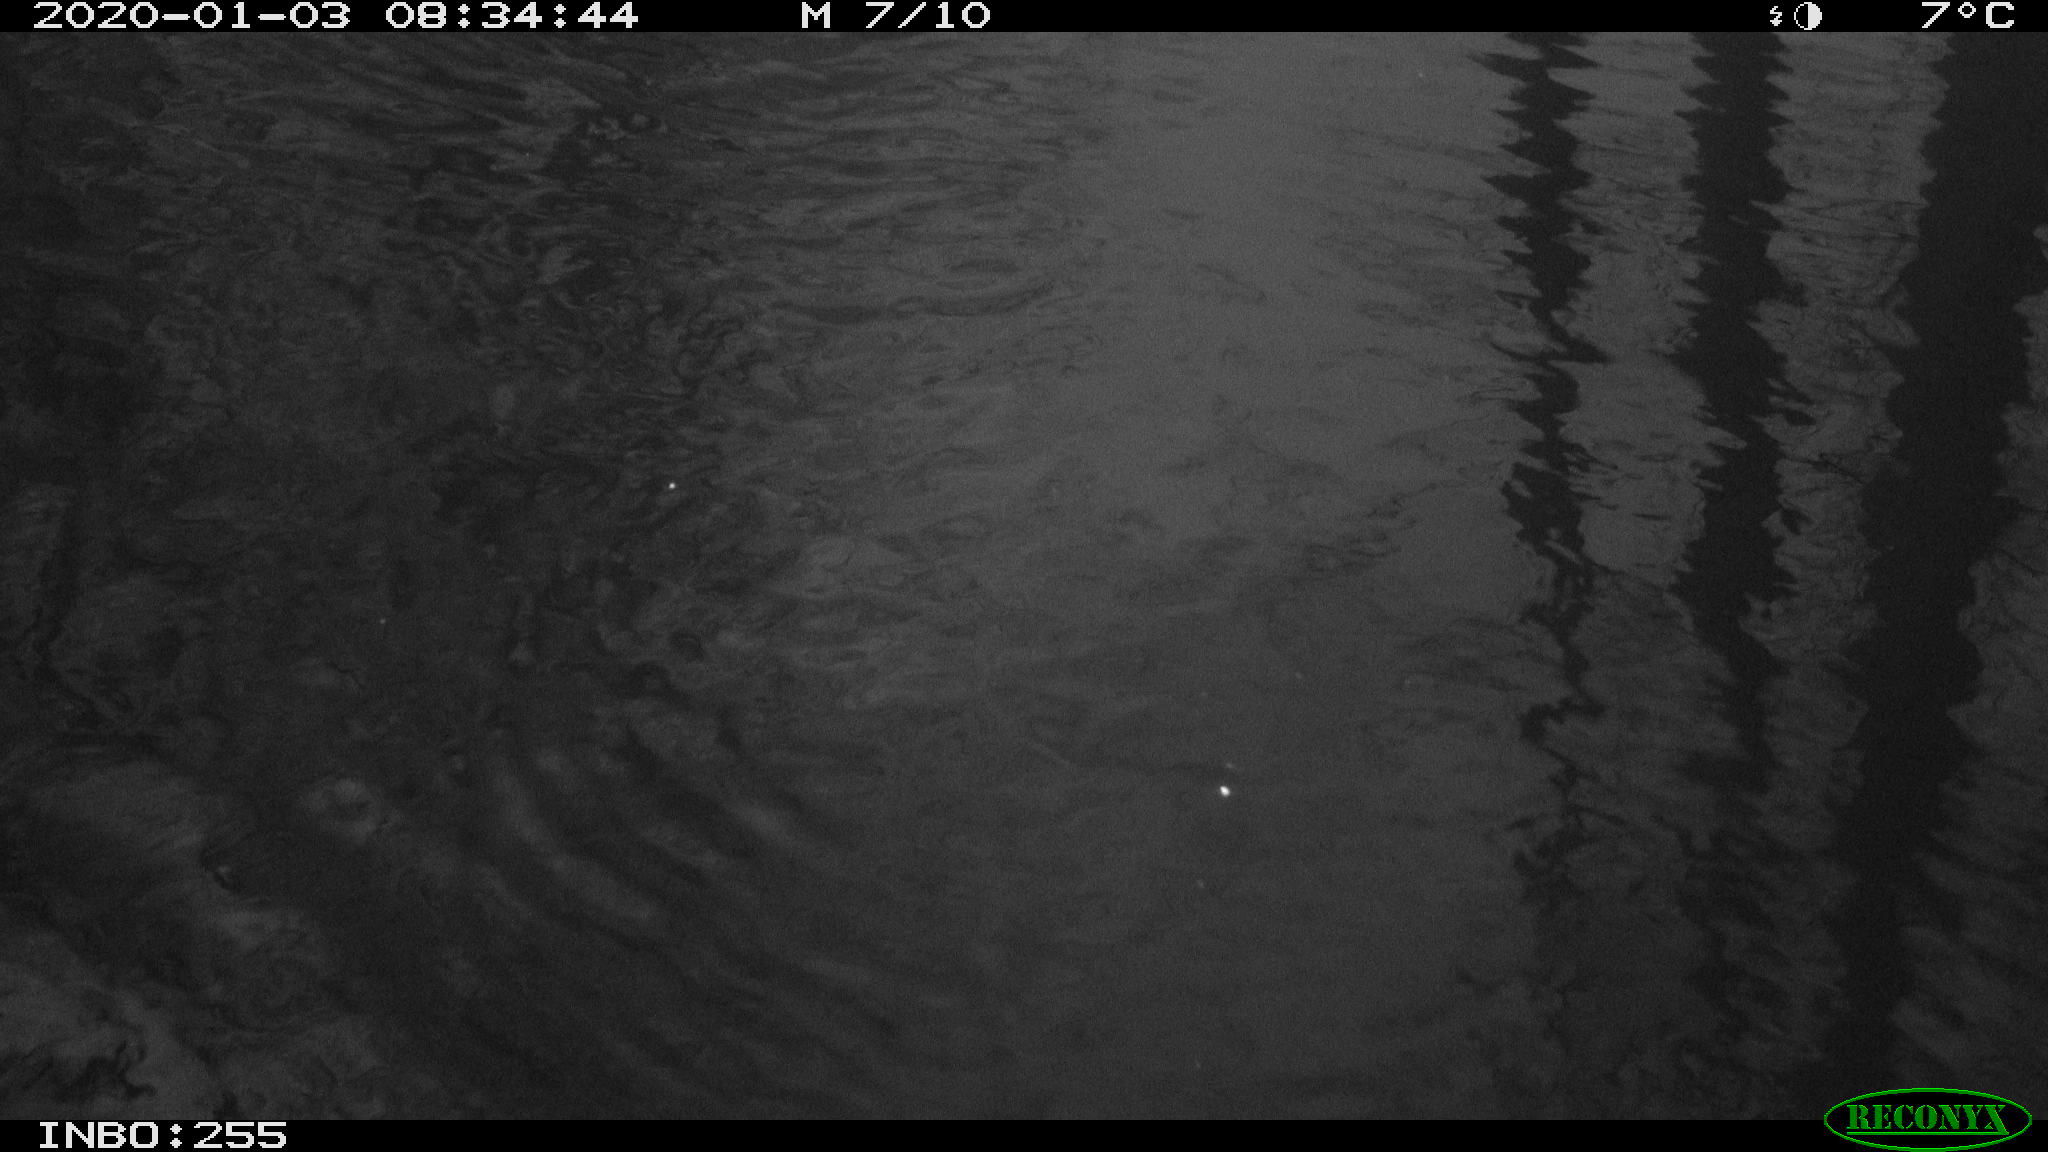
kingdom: Animalia
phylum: Chordata
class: Aves
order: Gruiformes
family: Rallidae
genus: Fulica
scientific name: Fulica atra
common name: Eurasian coot
